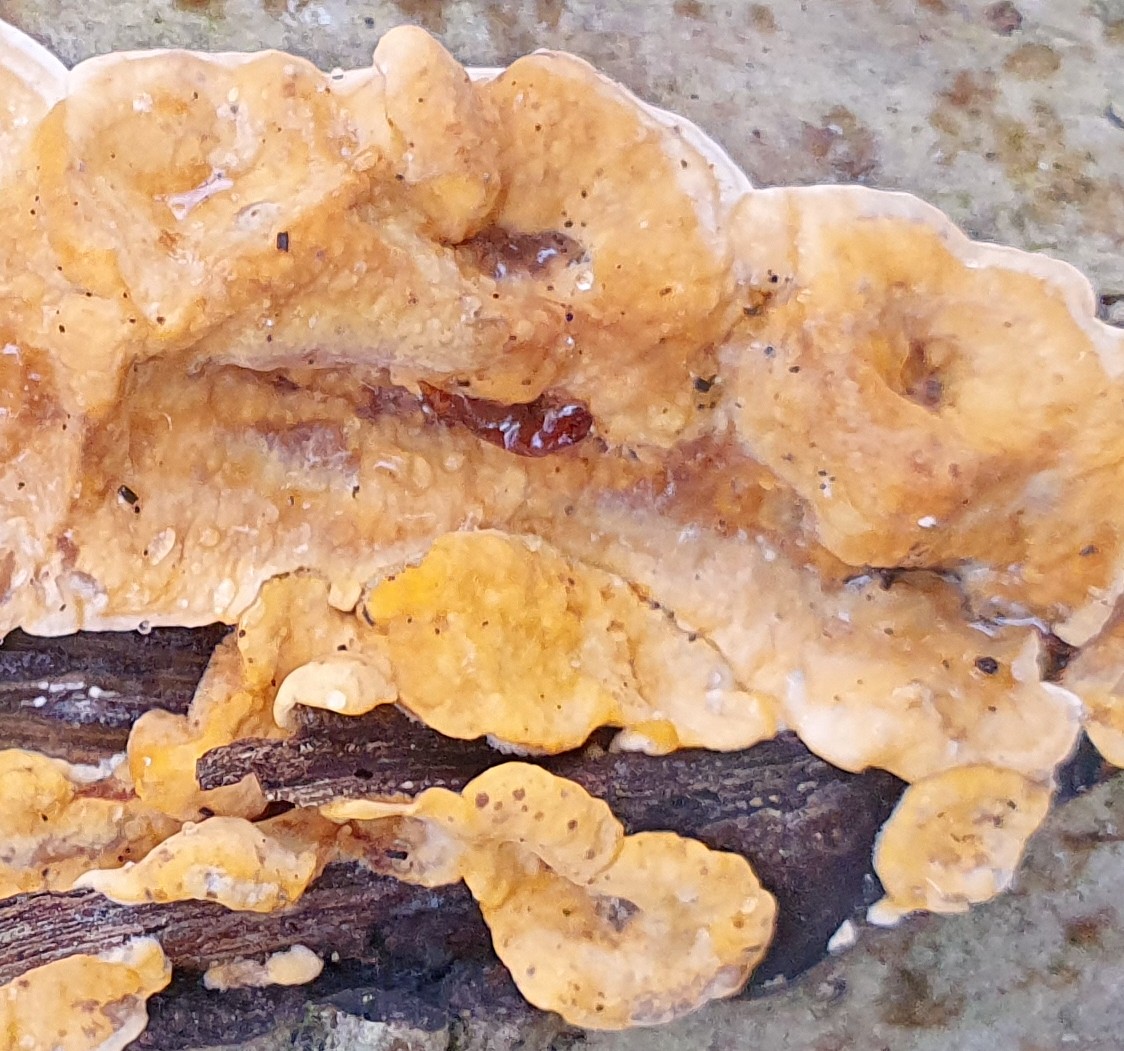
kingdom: Fungi
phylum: Basidiomycota
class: Agaricomycetes
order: Russulales
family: Stereaceae
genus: Stereum
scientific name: Stereum hirsutum
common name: håret lædersvamp
